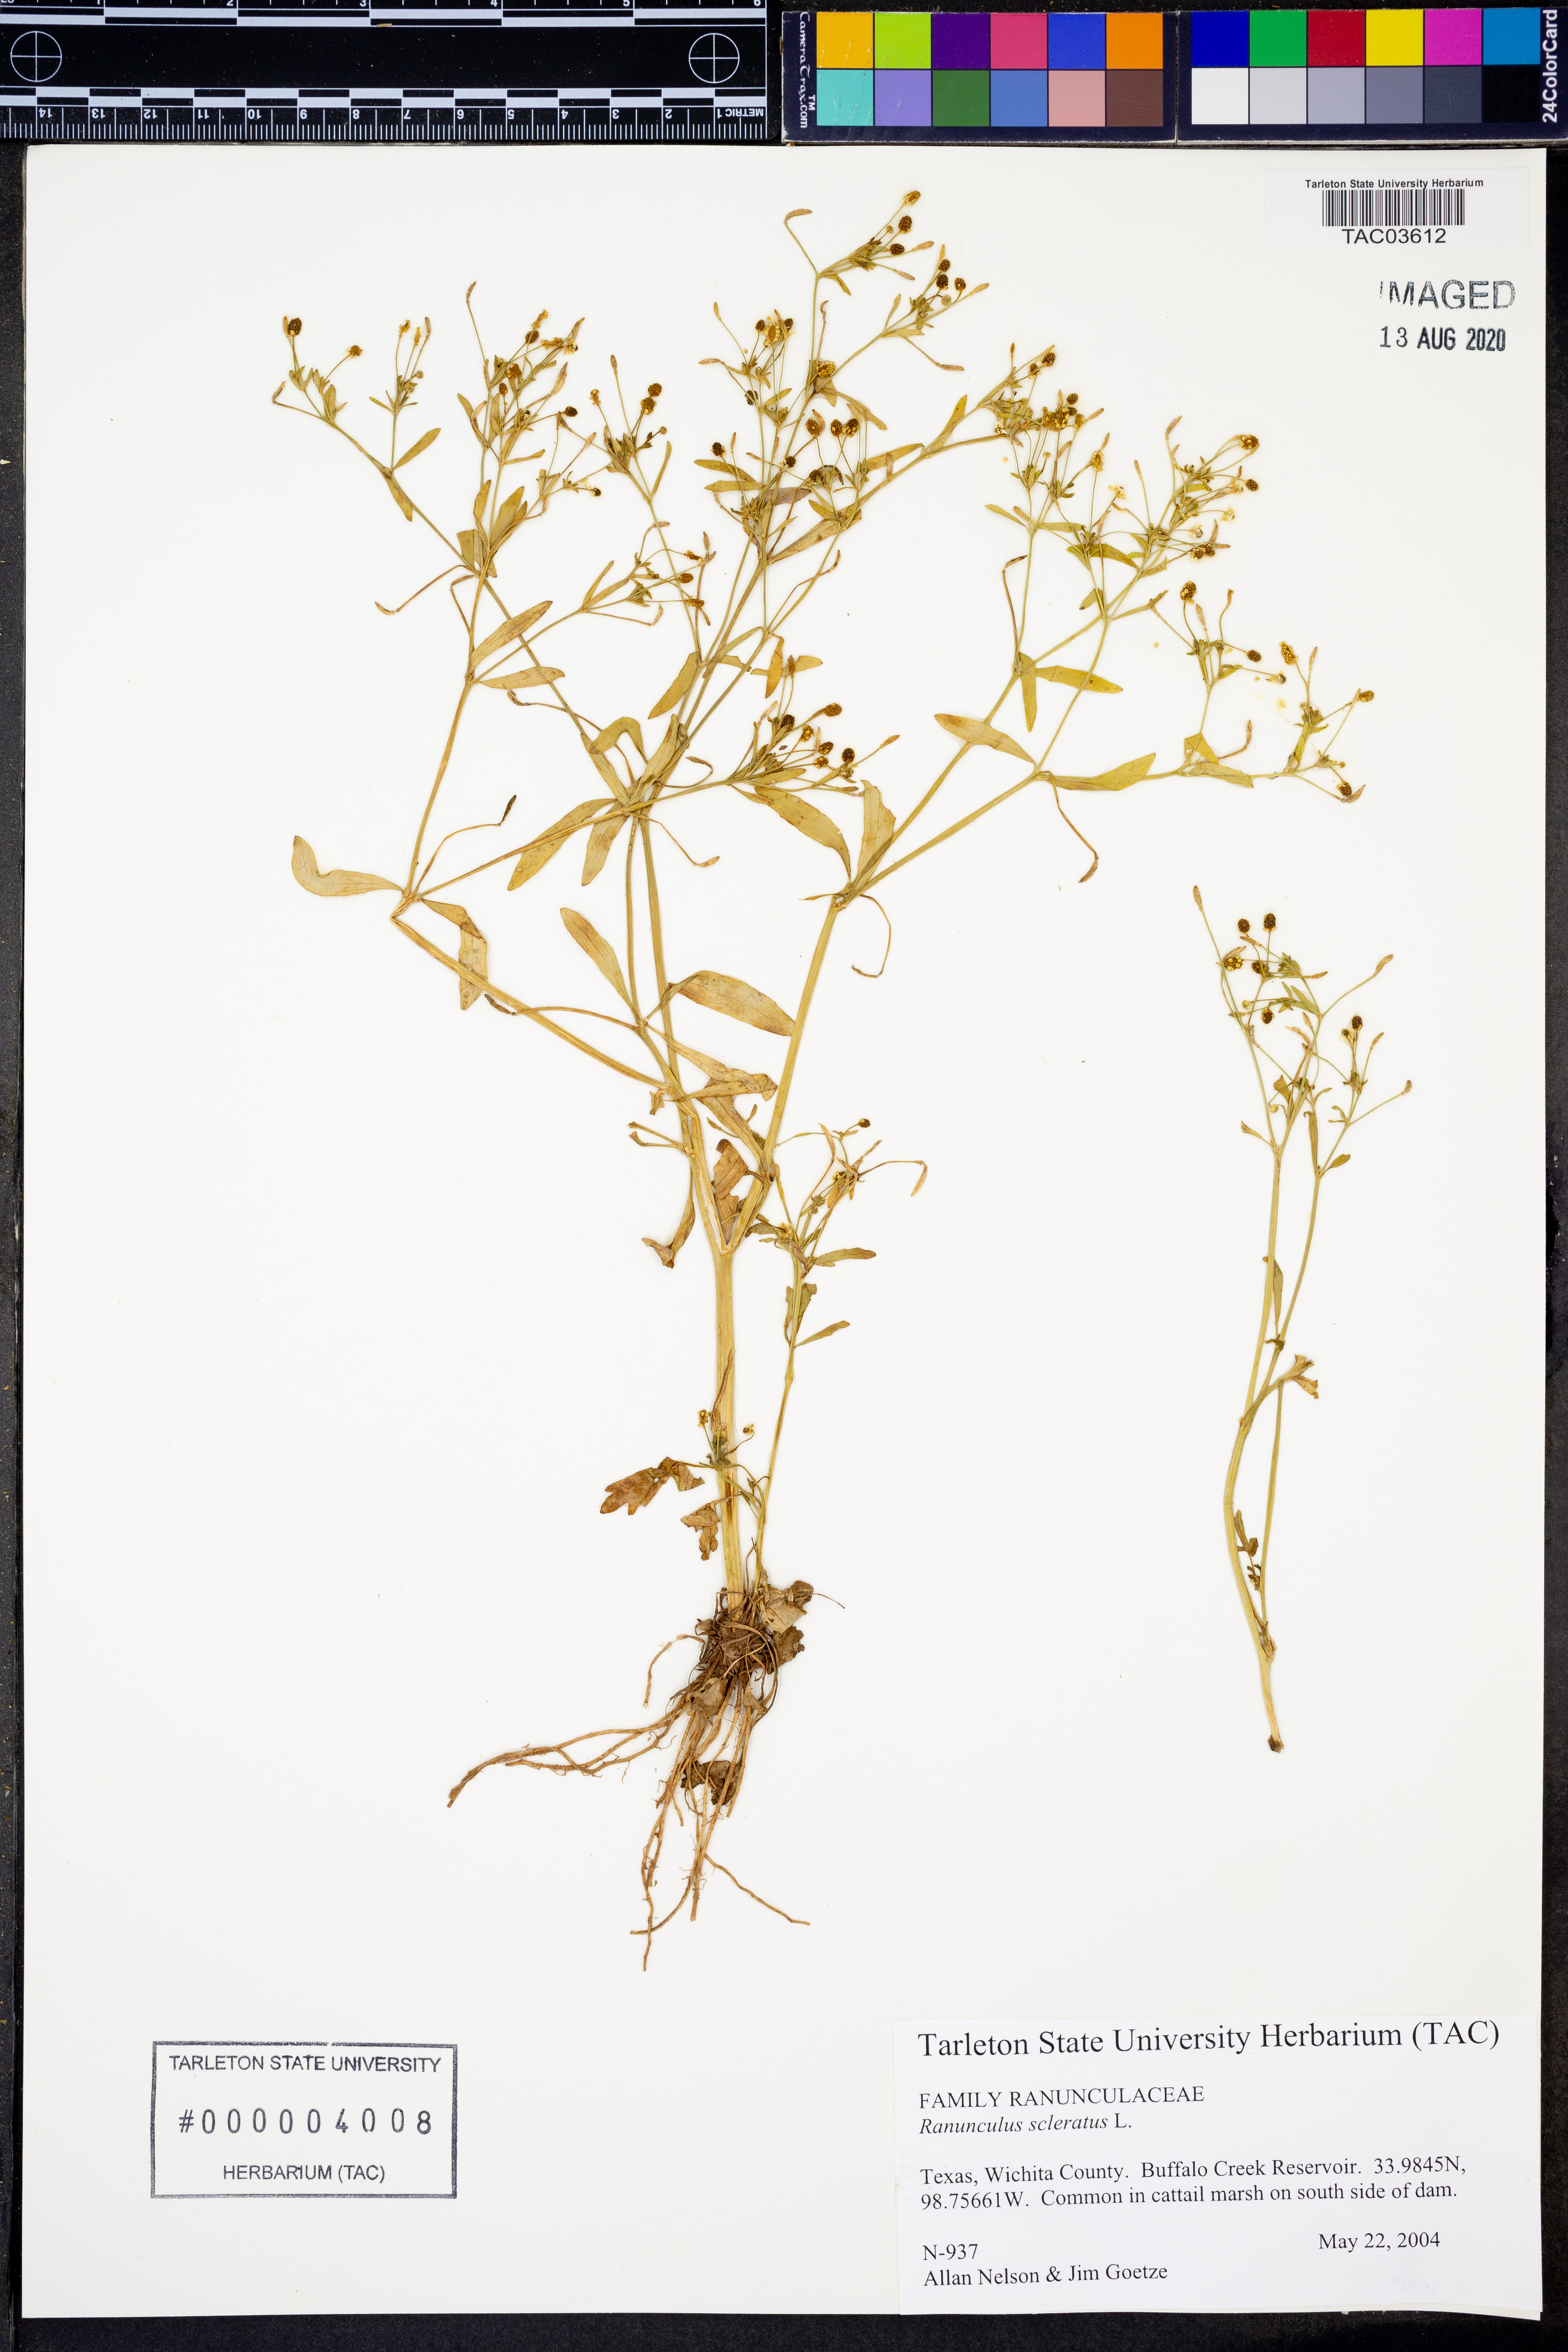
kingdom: Plantae
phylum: Tracheophyta
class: Magnoliopsida
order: Ranunculales
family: Ranunculaceae
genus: Ranunculus
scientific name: Ranunculus sceleratus
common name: Celery-leaved buttercup
